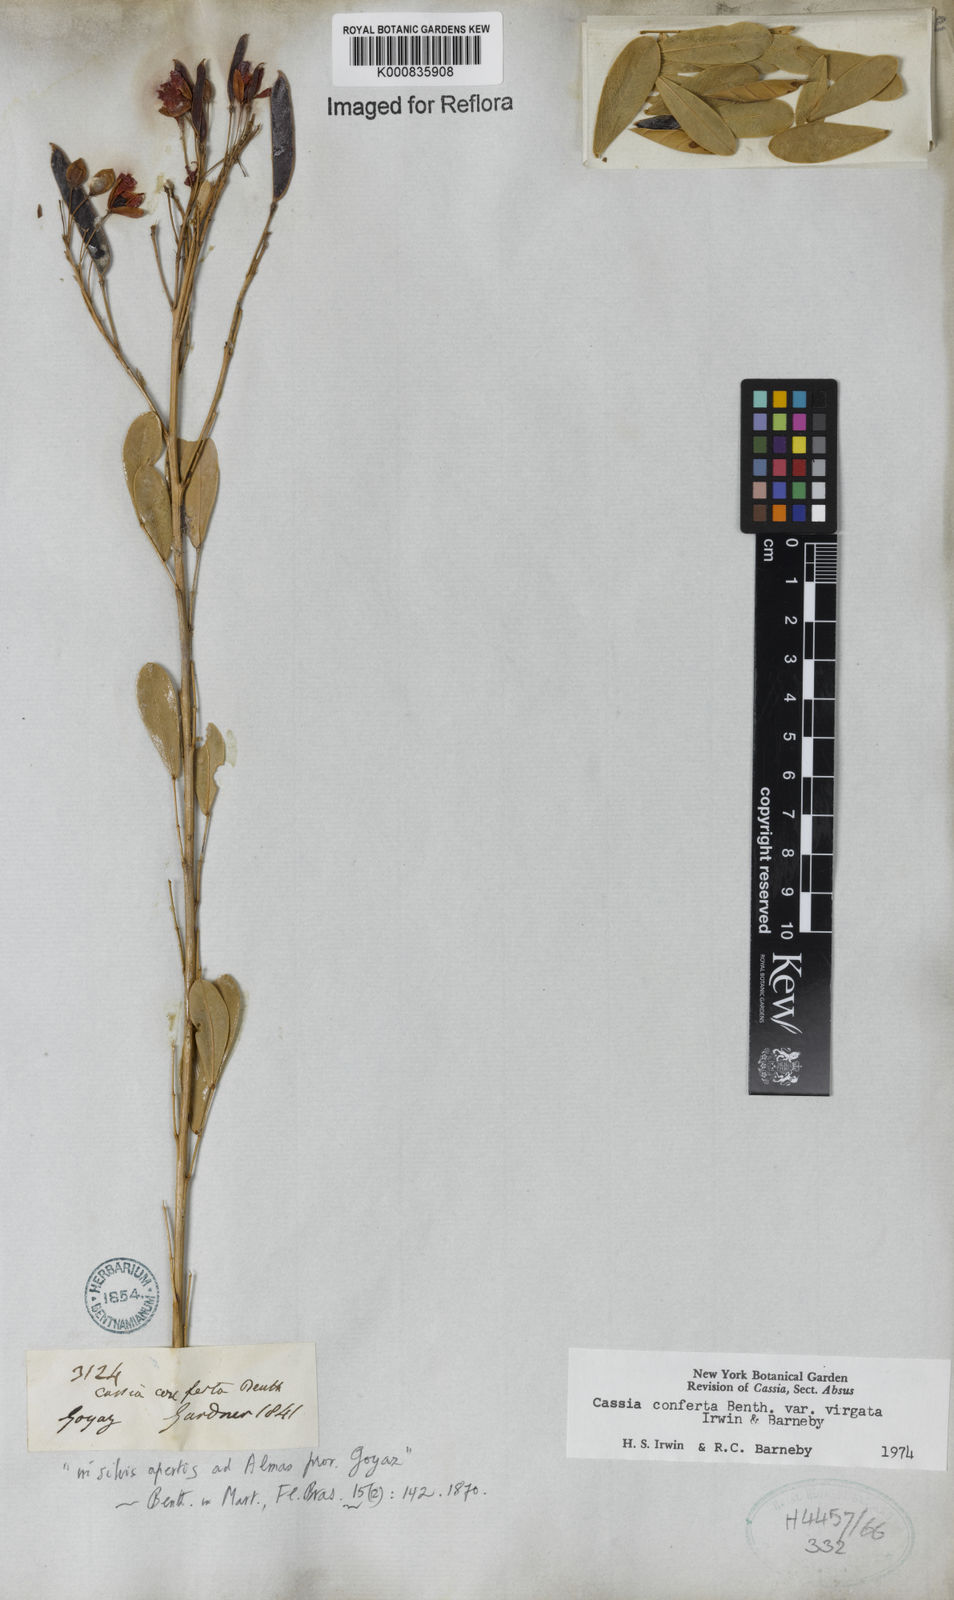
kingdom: Plantae
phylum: Tracheophyta
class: Magnoliopsida
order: Fabales
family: Fabaceae
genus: Chamaecrista
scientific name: Chamaecrista conferta
